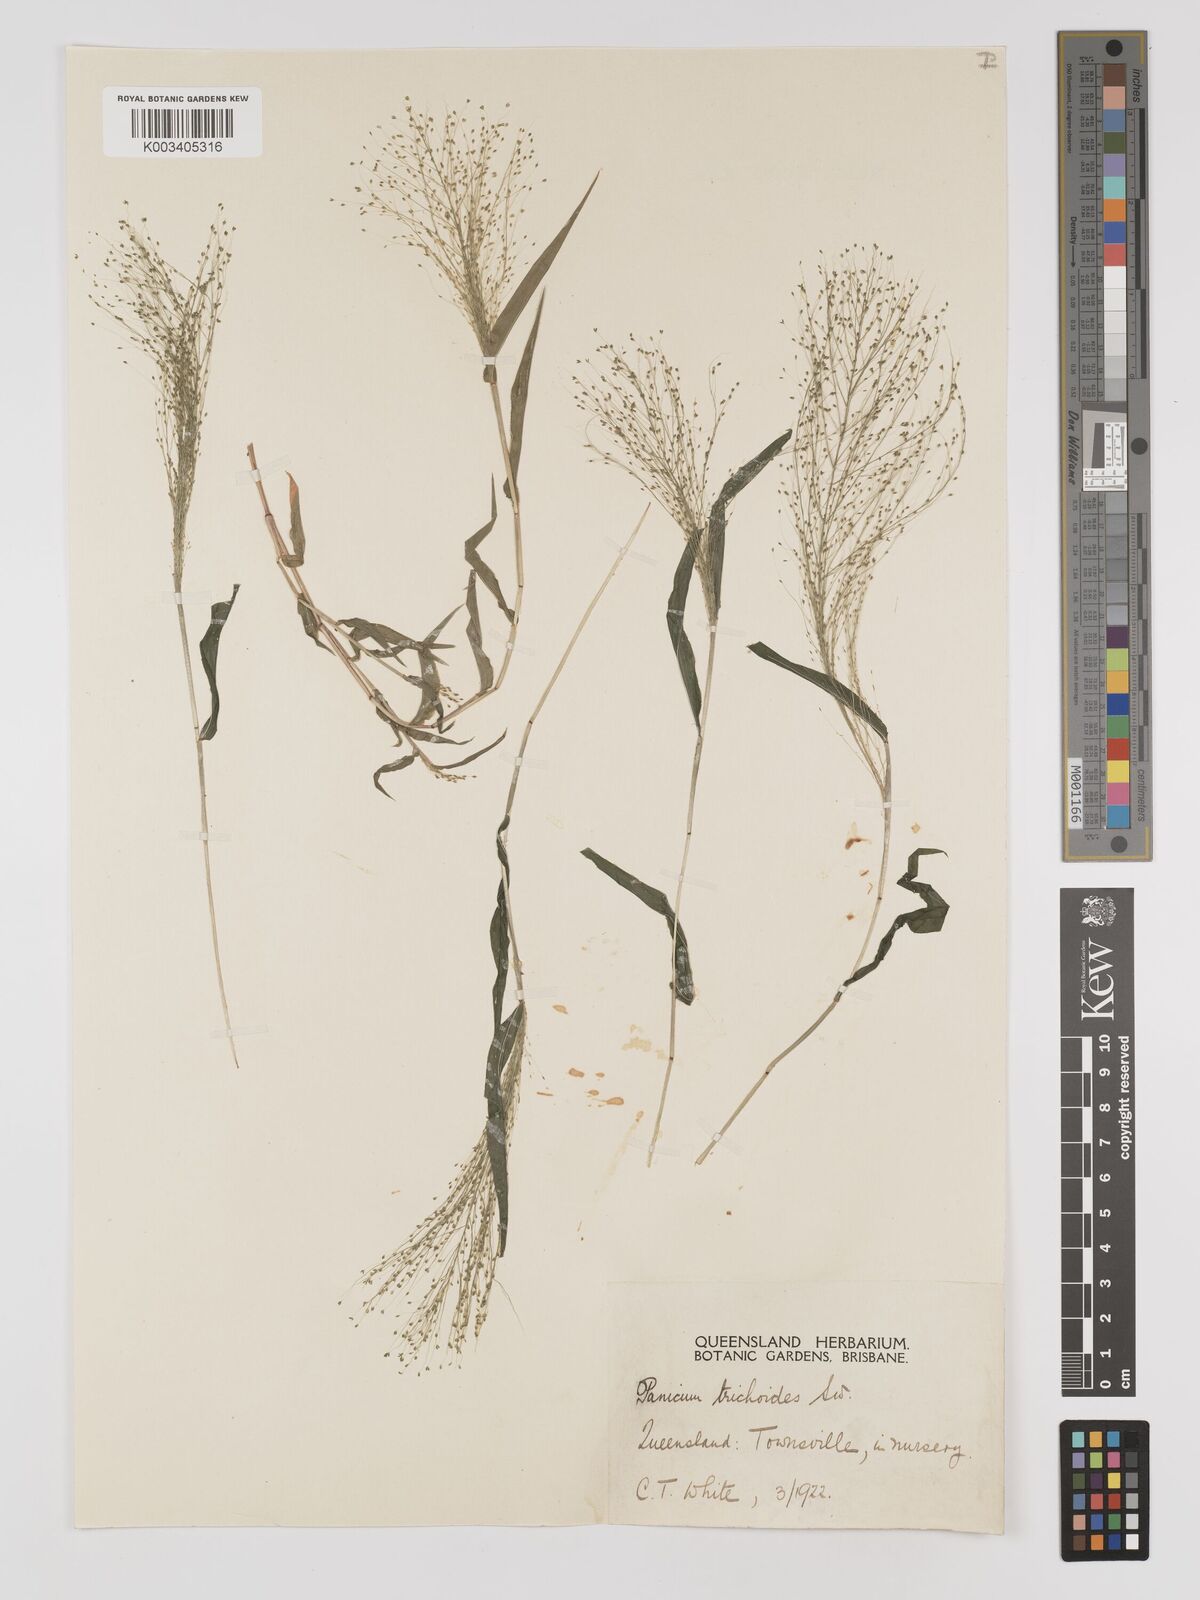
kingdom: Plantae
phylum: Tracheophyta
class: Liliopsida
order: Poales
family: Poaceae
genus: Panicum
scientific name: Panicum trichoides
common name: Tickle grass
